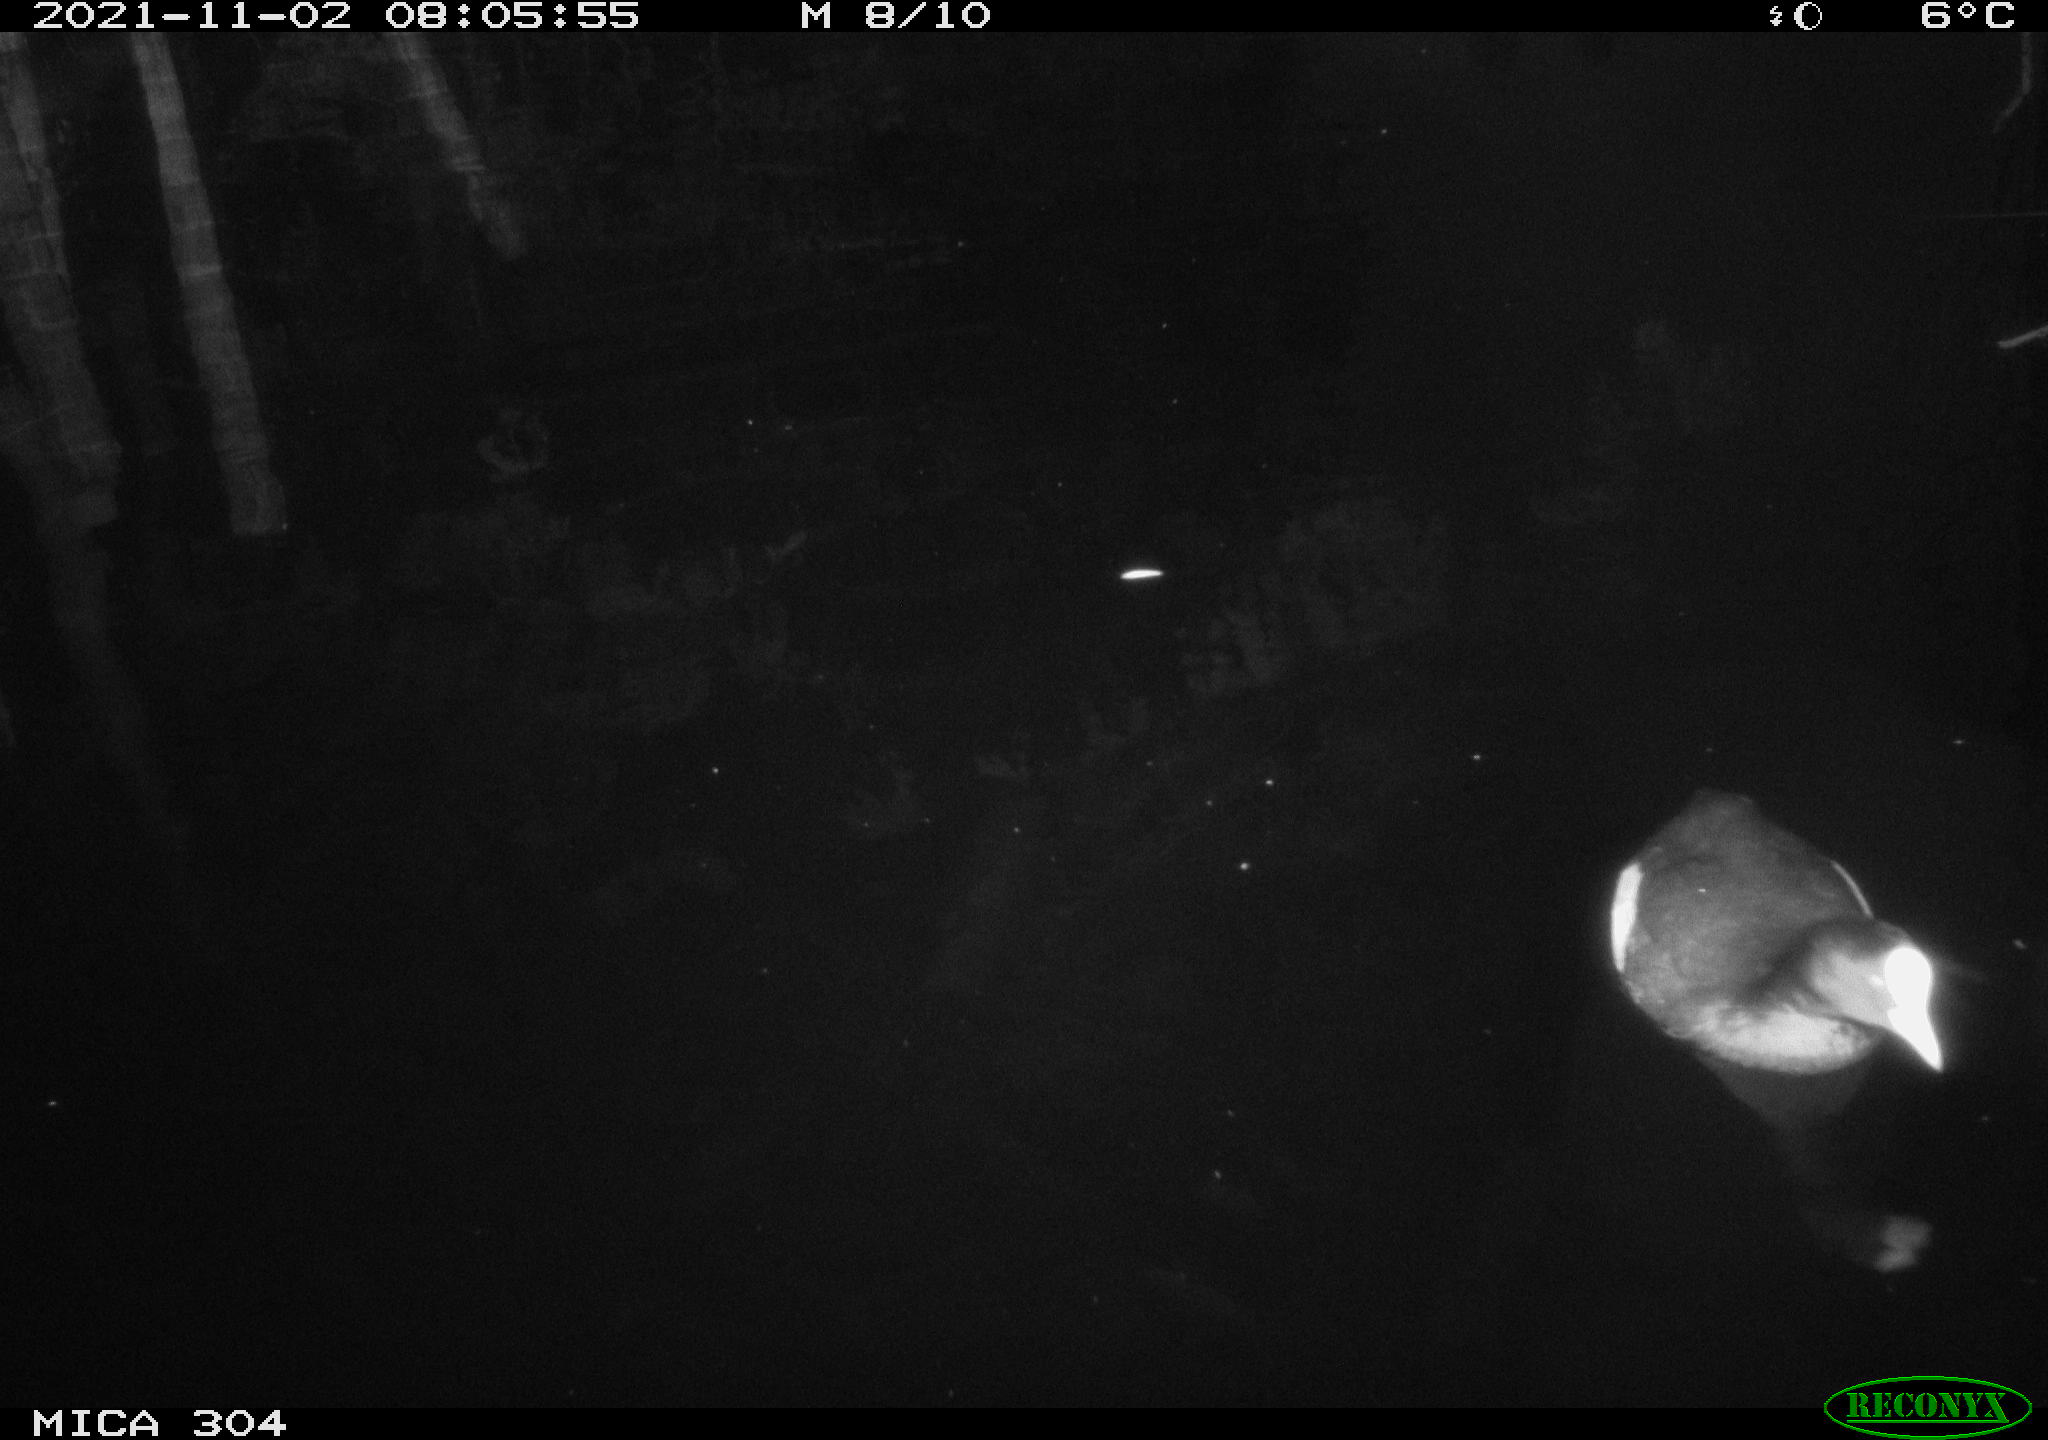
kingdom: Animalia
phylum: Chordata
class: Aves
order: Gruiformes
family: Rallidae
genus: Fulica
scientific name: Fulica atra
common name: Eurasian coot
